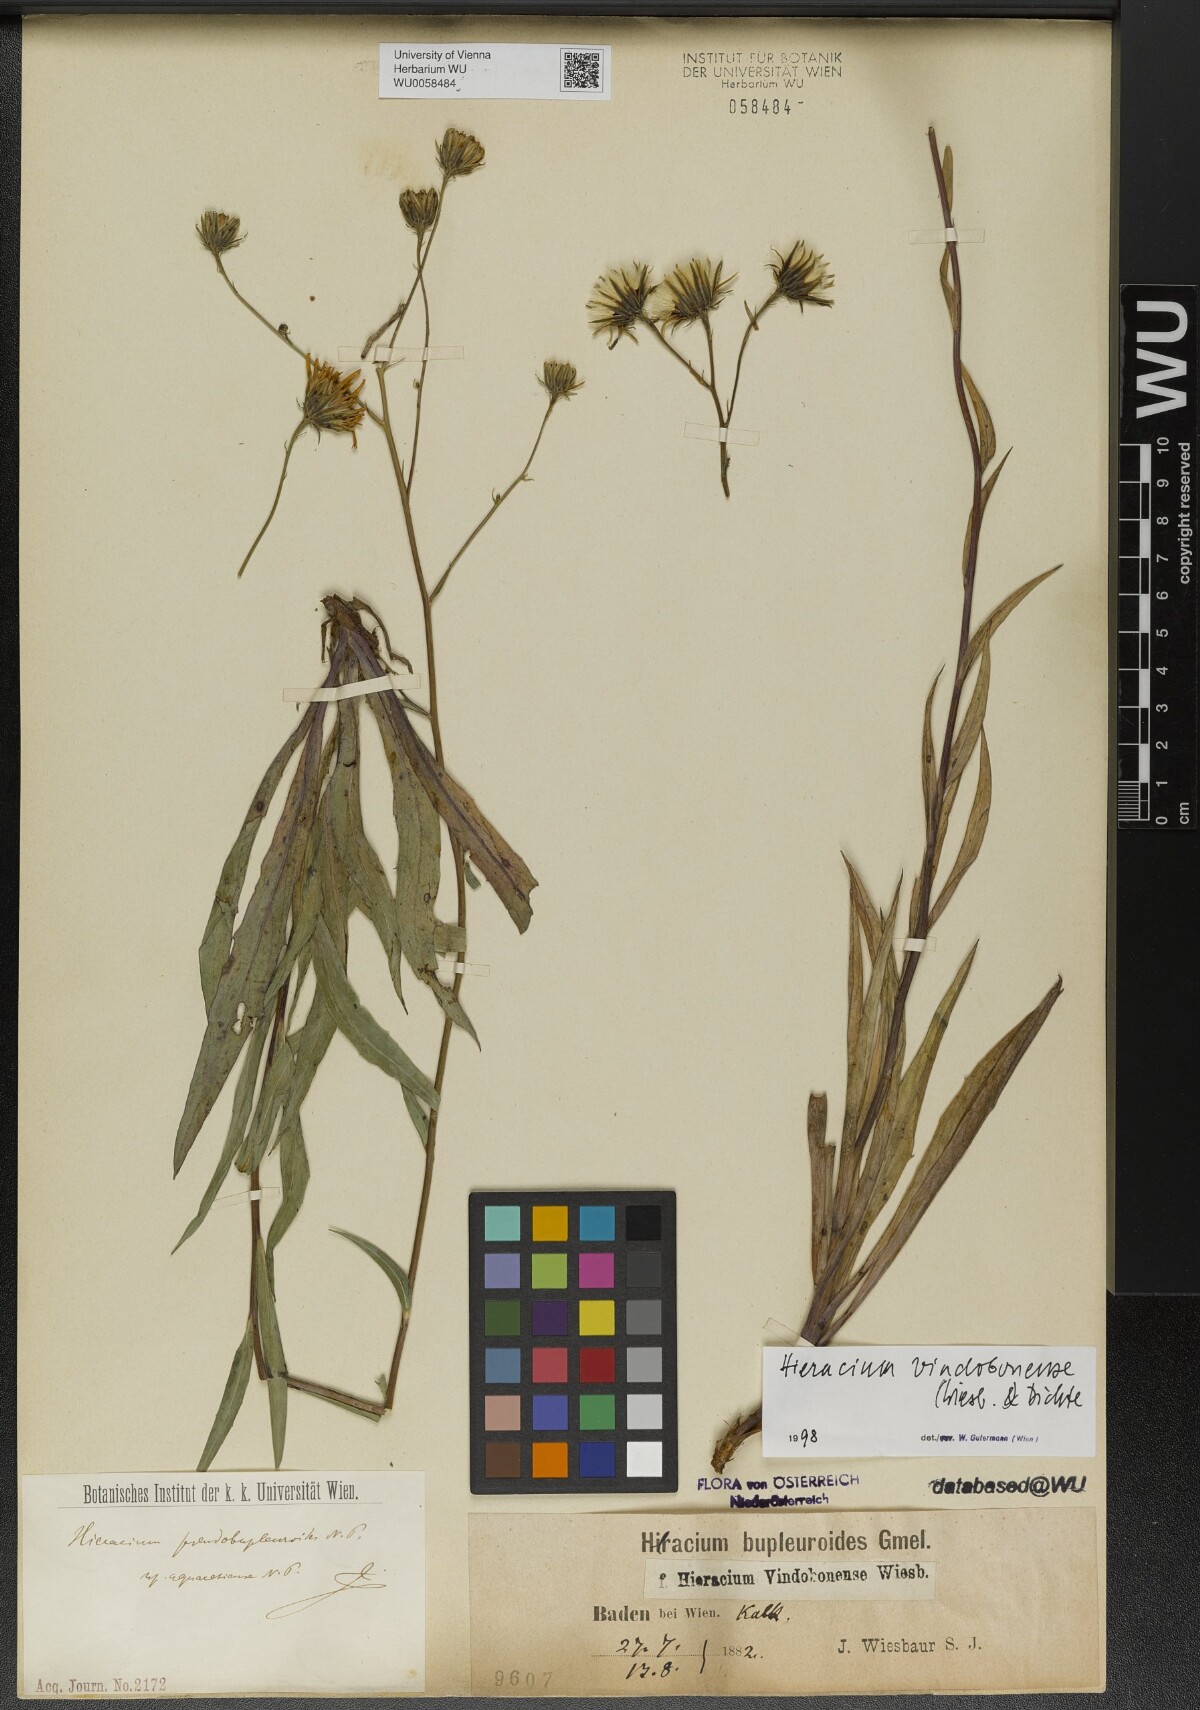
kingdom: Plantae
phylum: Tracheophyta
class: Magnoliopsida
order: Asterales
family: Asteraceae
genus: Hieracium
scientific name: Hieracium vindobonense
